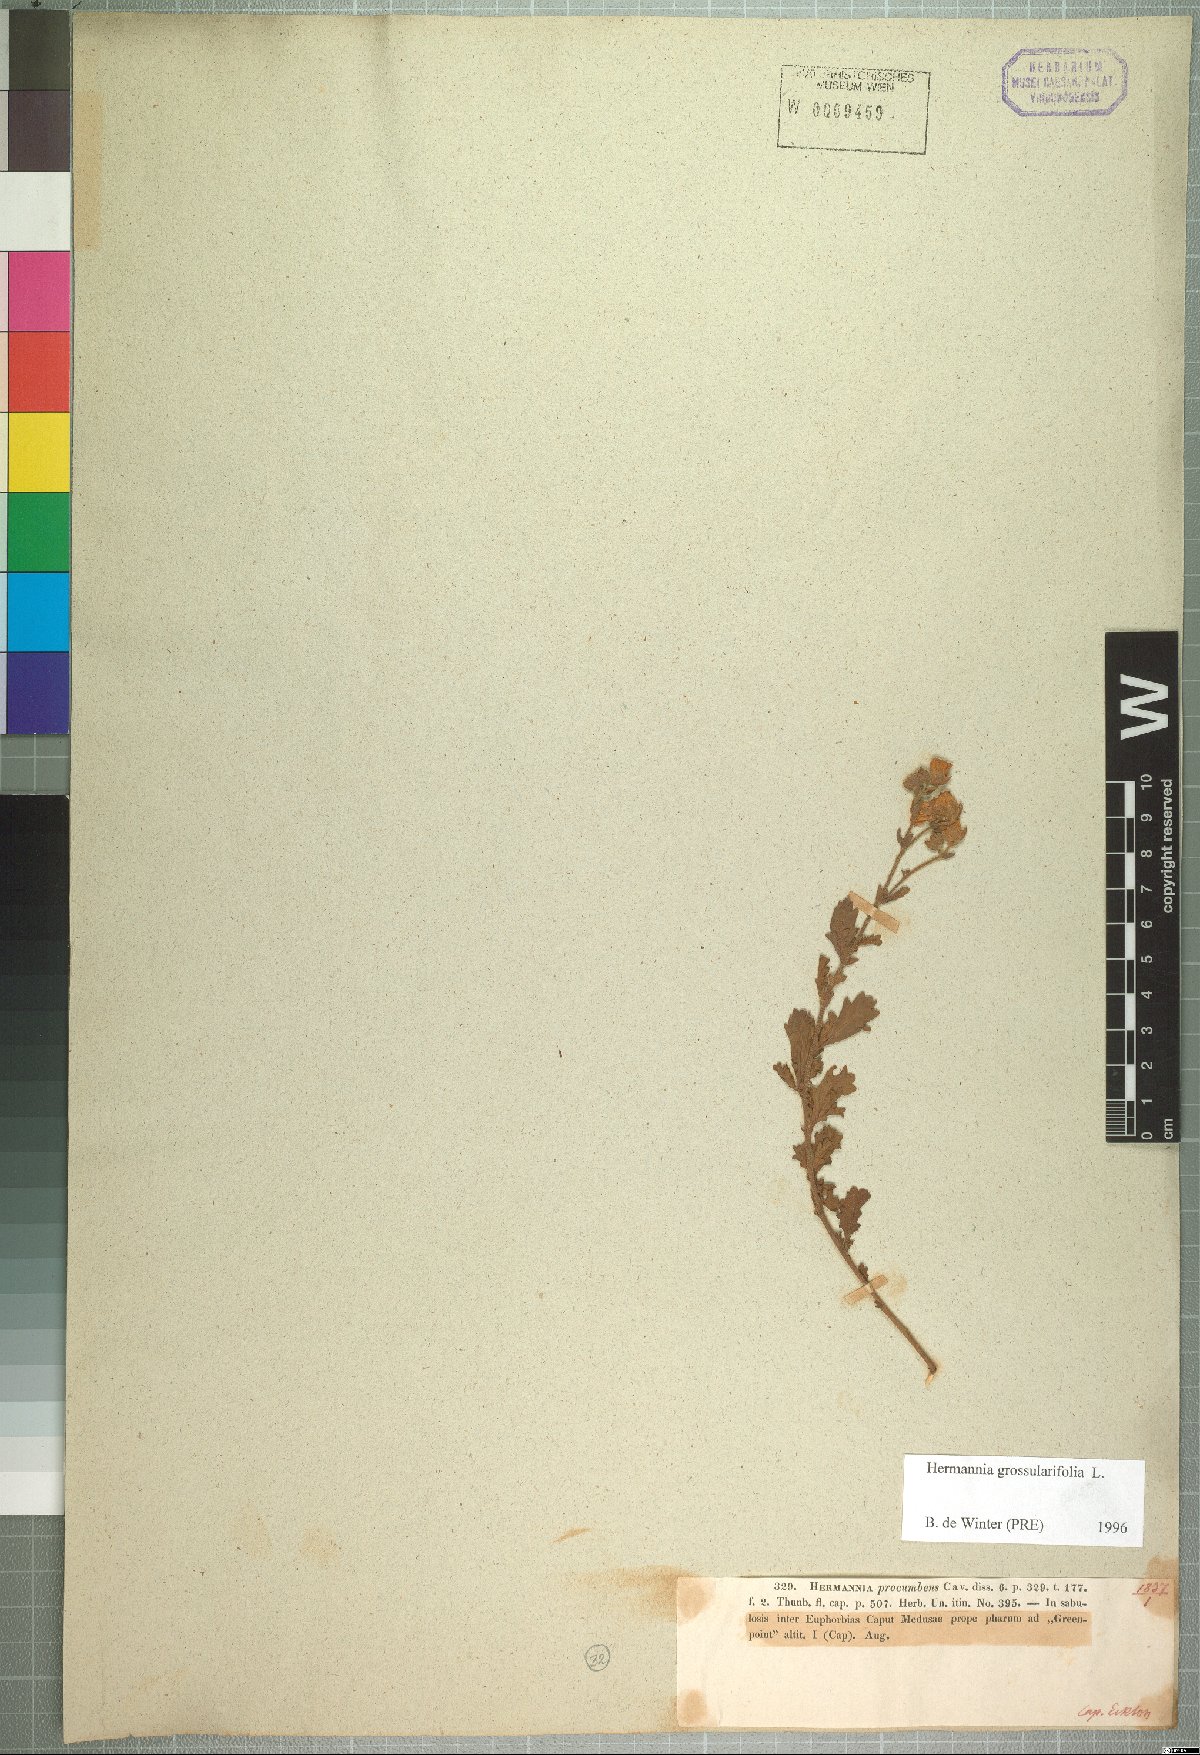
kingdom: Plantae
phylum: Tracheophyta
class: Magnoliopsida
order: Malvales
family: Malvaceae
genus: Hermannia
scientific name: Hermannia procumbens
